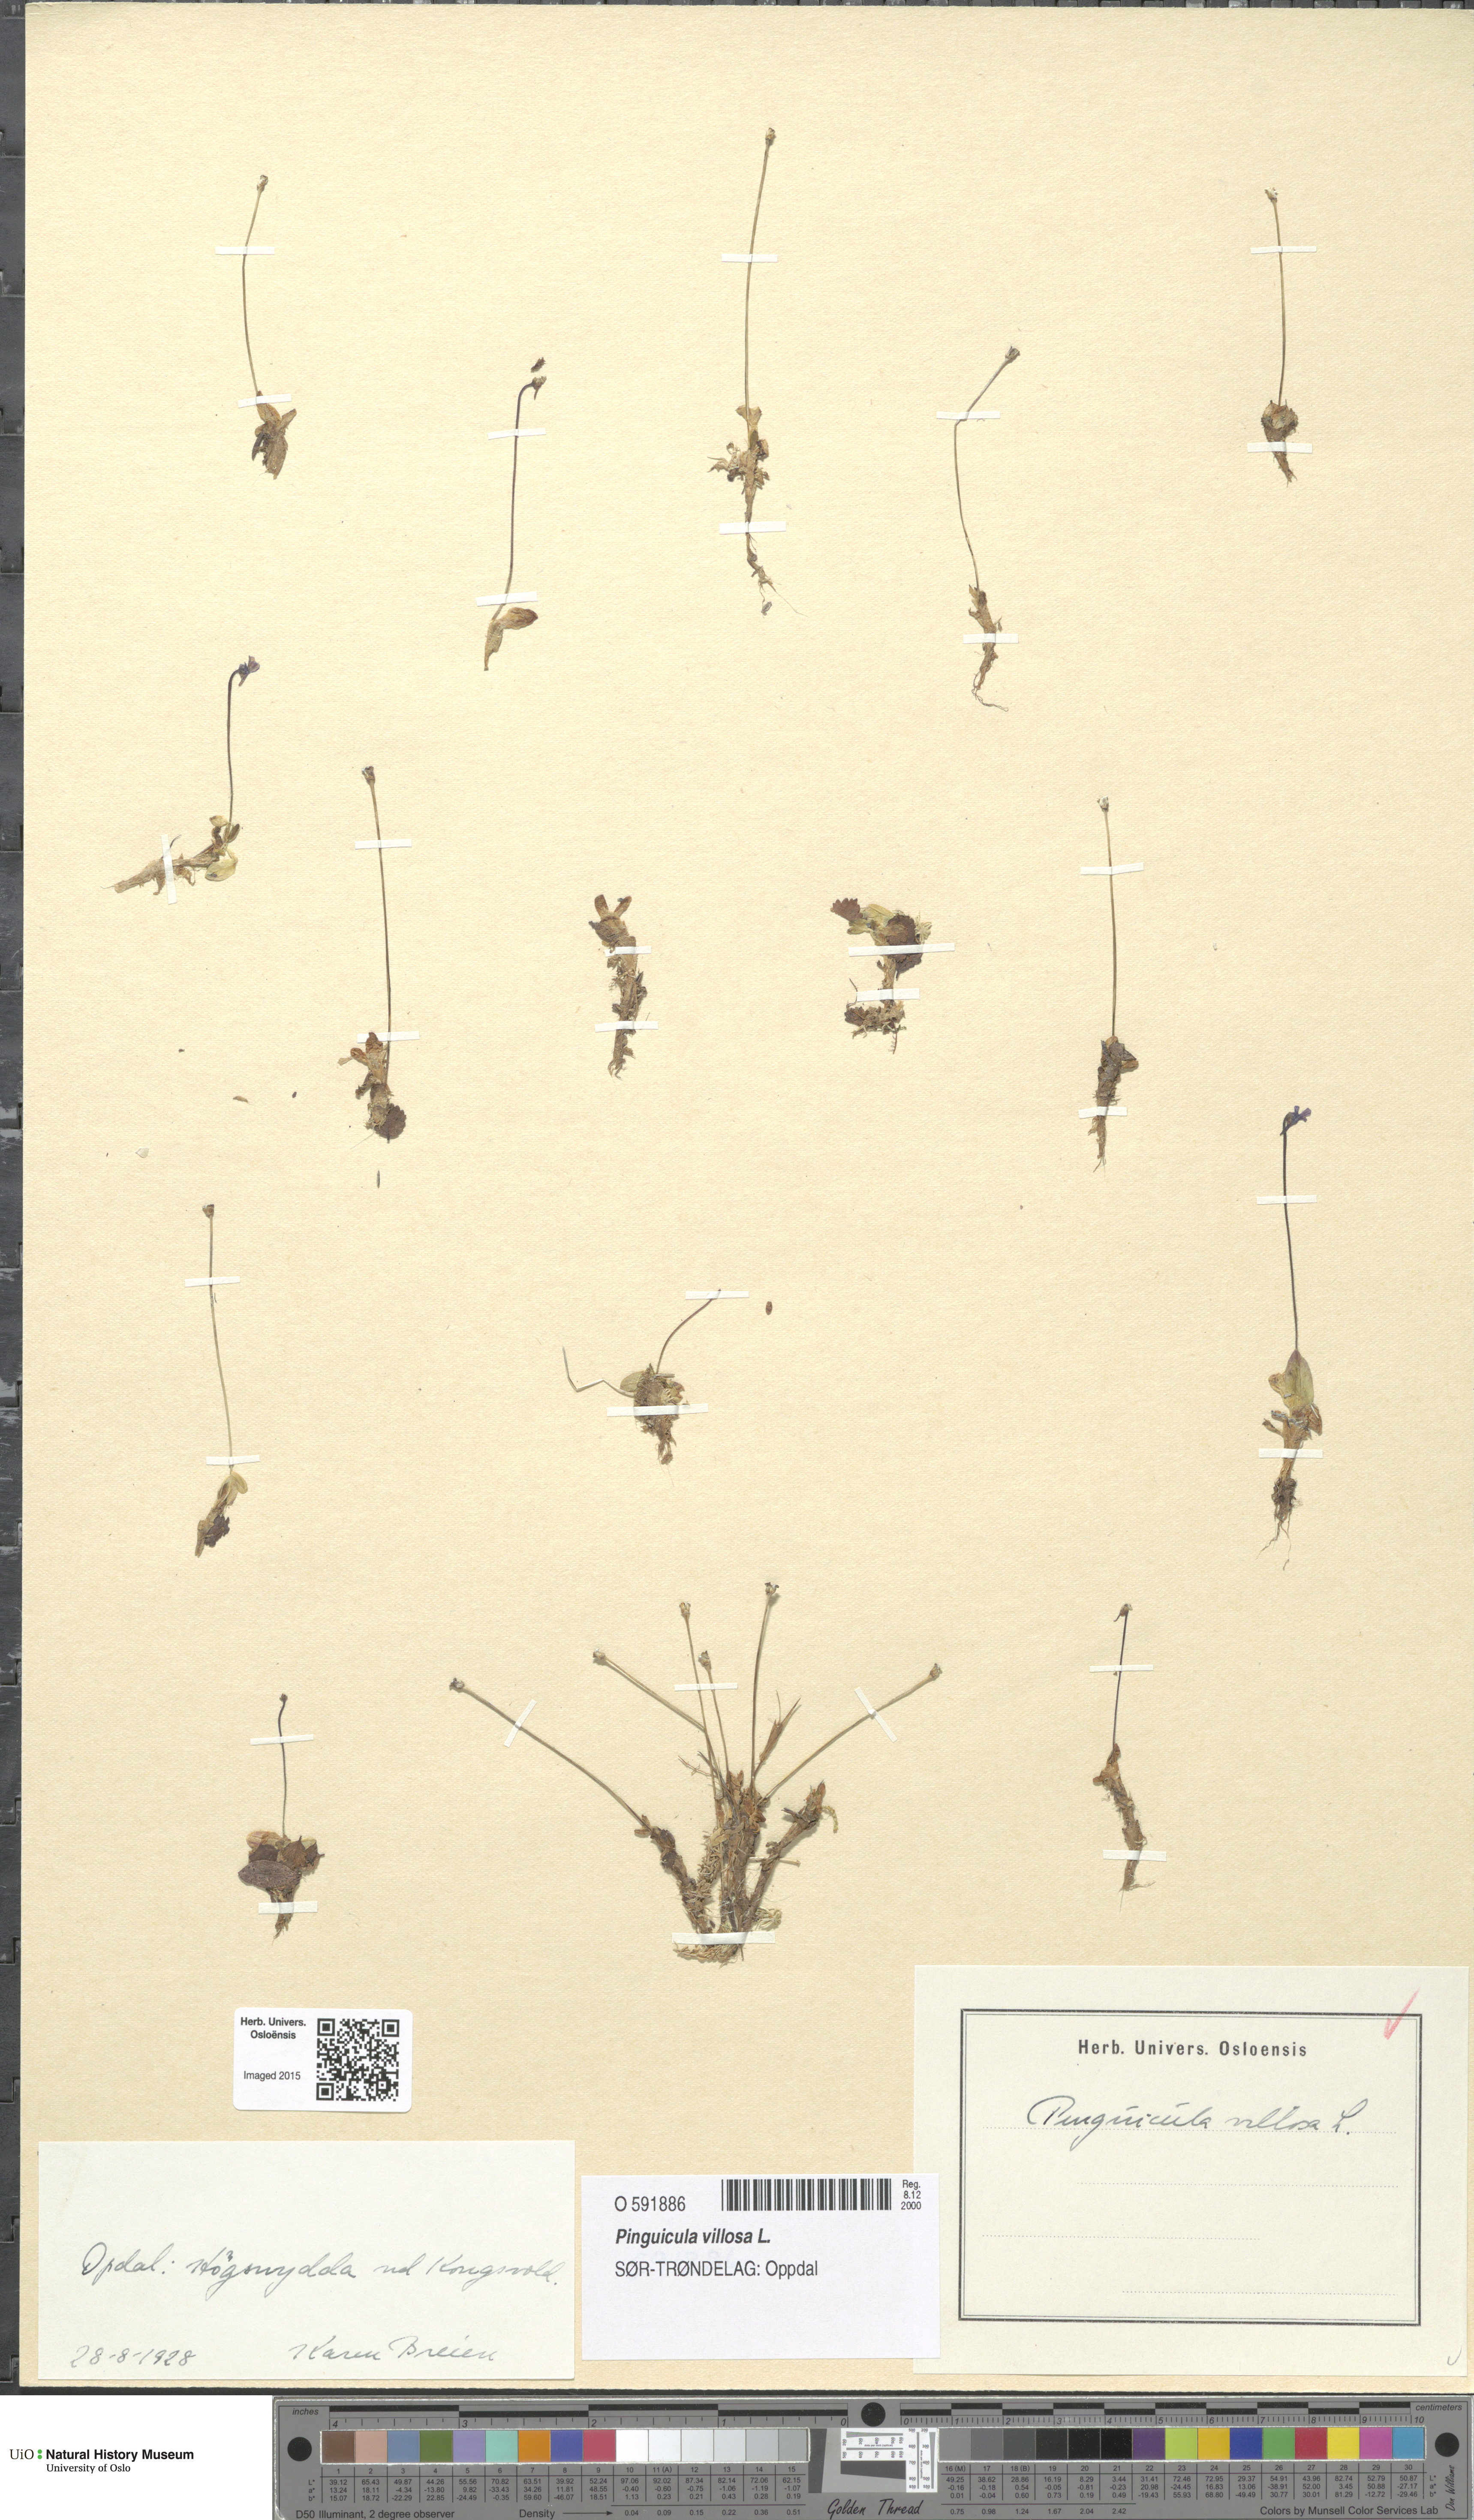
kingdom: Plantae
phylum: Tracheophyta
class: Magnoliopsida
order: Lamiales
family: Lentibulariaceae
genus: Pinguicula
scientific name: Pinguicula villosa
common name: Hairy butterwort
